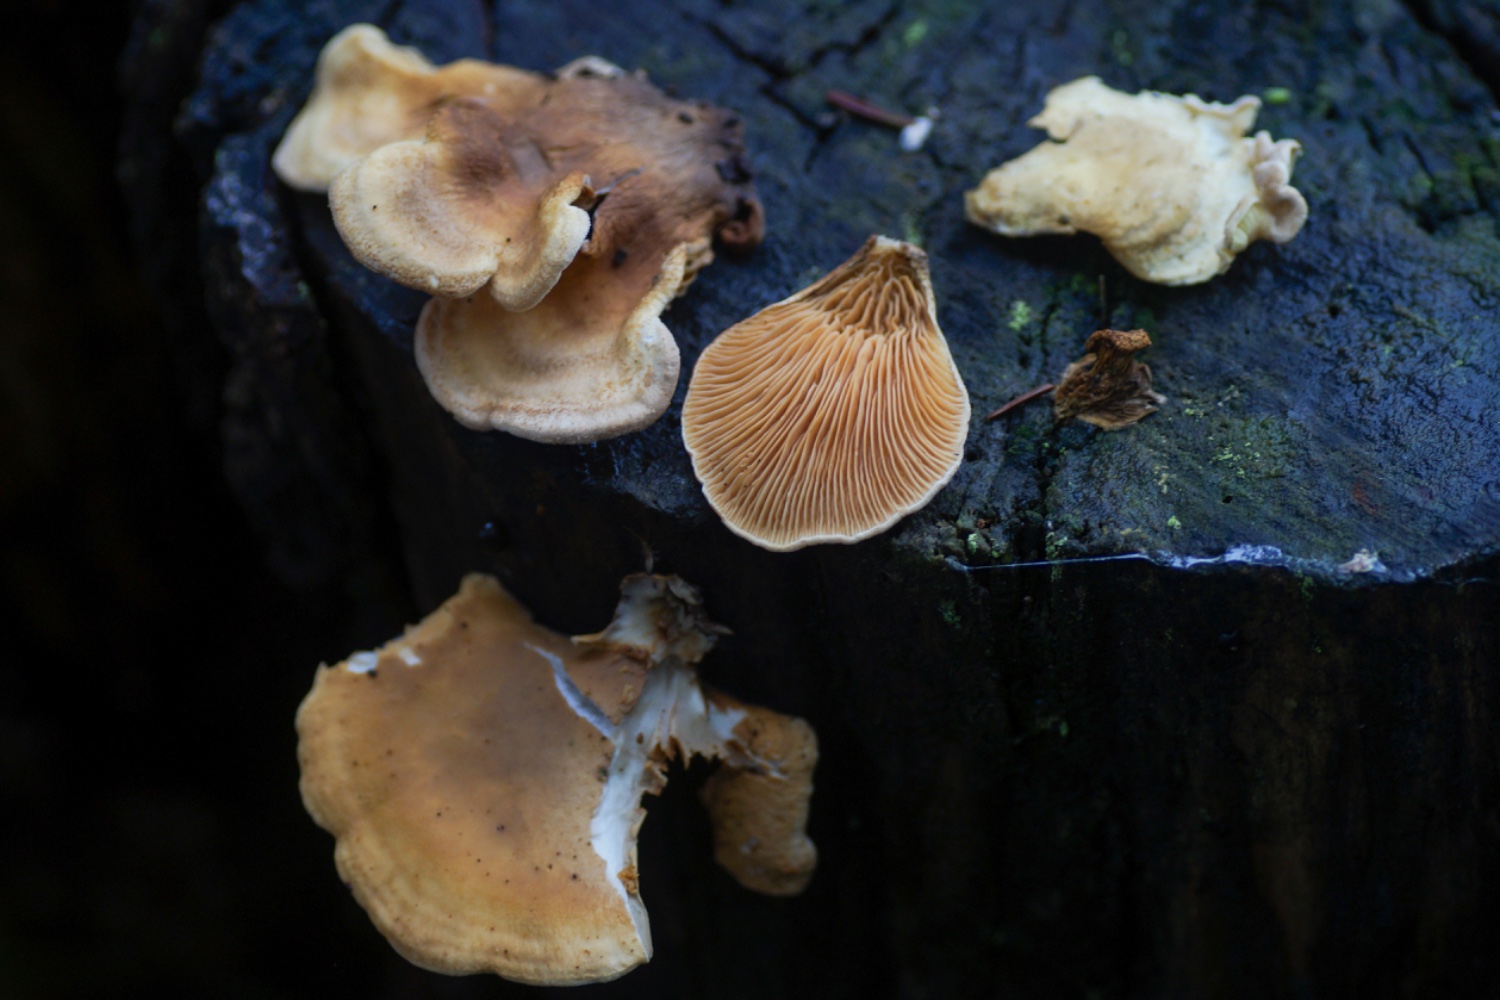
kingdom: Fungi
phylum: Basidiomycota
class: Agaricomycetes
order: Boletales
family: Tapinellaceae
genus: Tapinella
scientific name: Tapinella panuoides
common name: tømmer-viftesvamp
